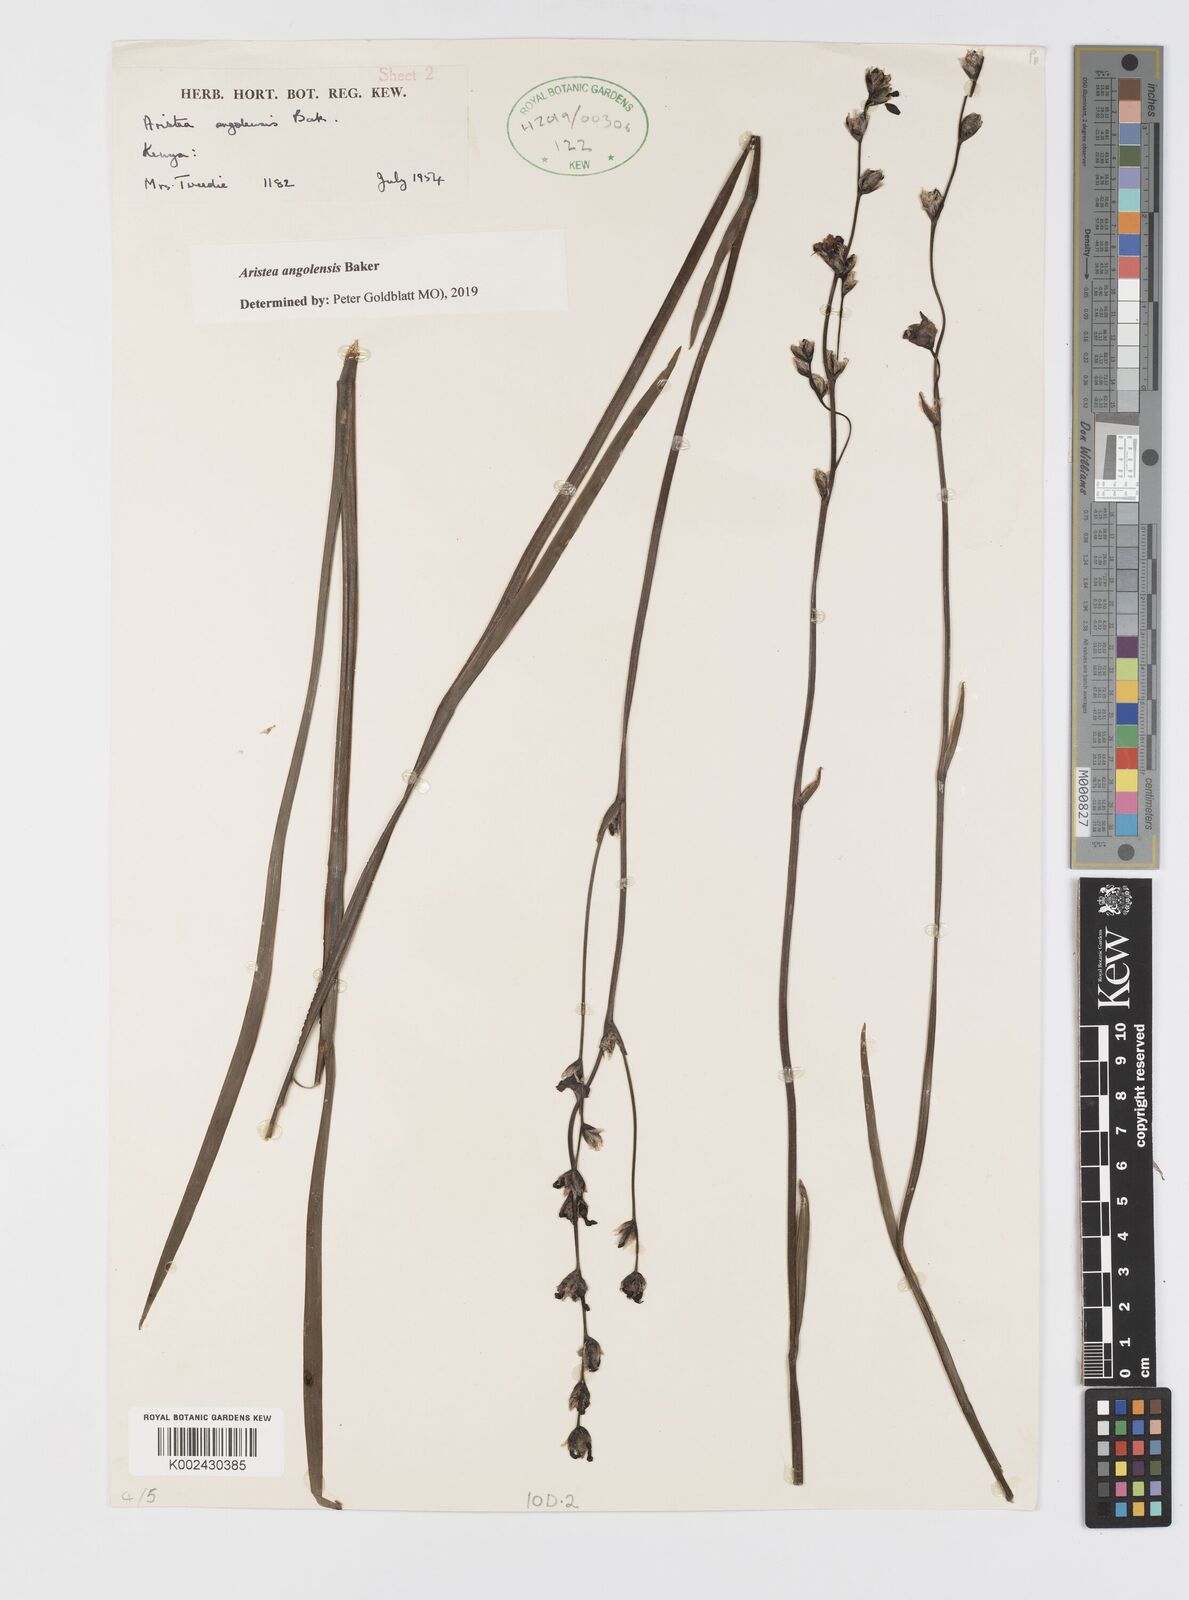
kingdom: Plantae
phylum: Tracheophyta
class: Liliopsida
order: Asparagales
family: Iridaceae
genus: Aristea
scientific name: Aristea angolensis
